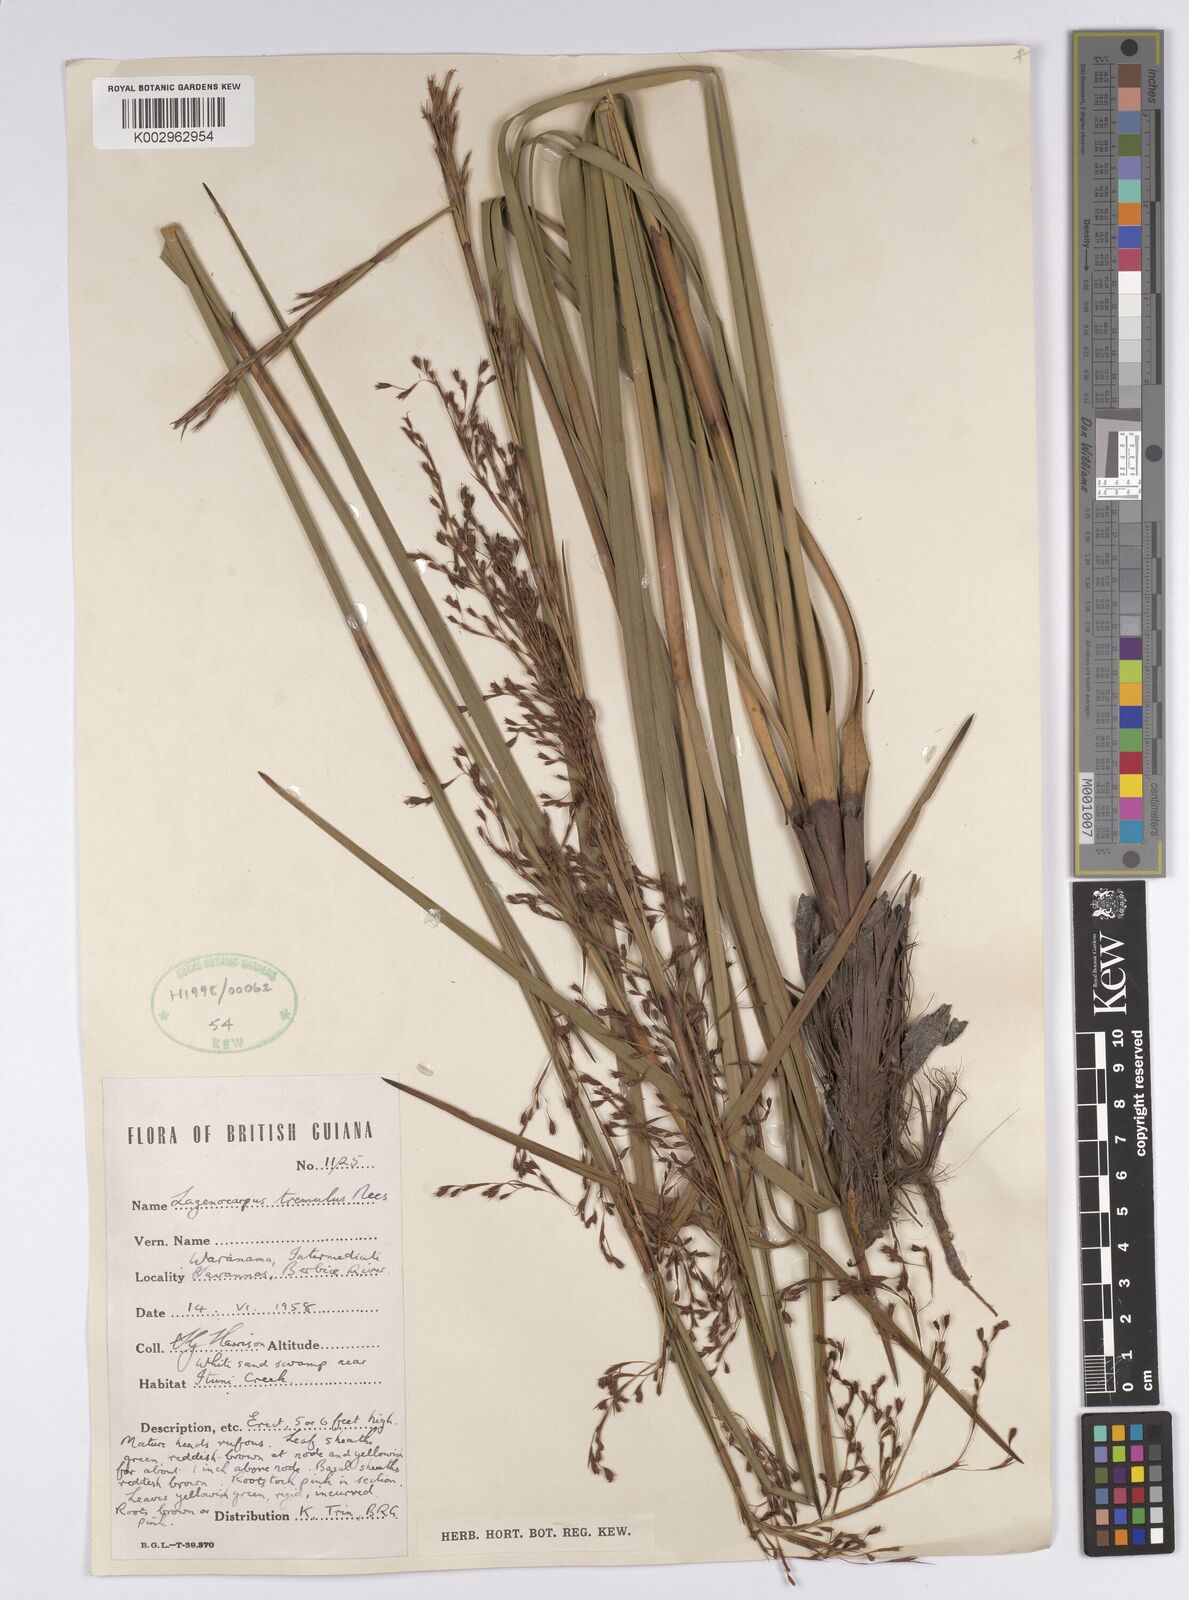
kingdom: Plantae
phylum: Tracheophyta
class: Liliopsida
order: Poales
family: Cyperaceae
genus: Lagenocarpus
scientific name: Lagenocarpus rigidus
